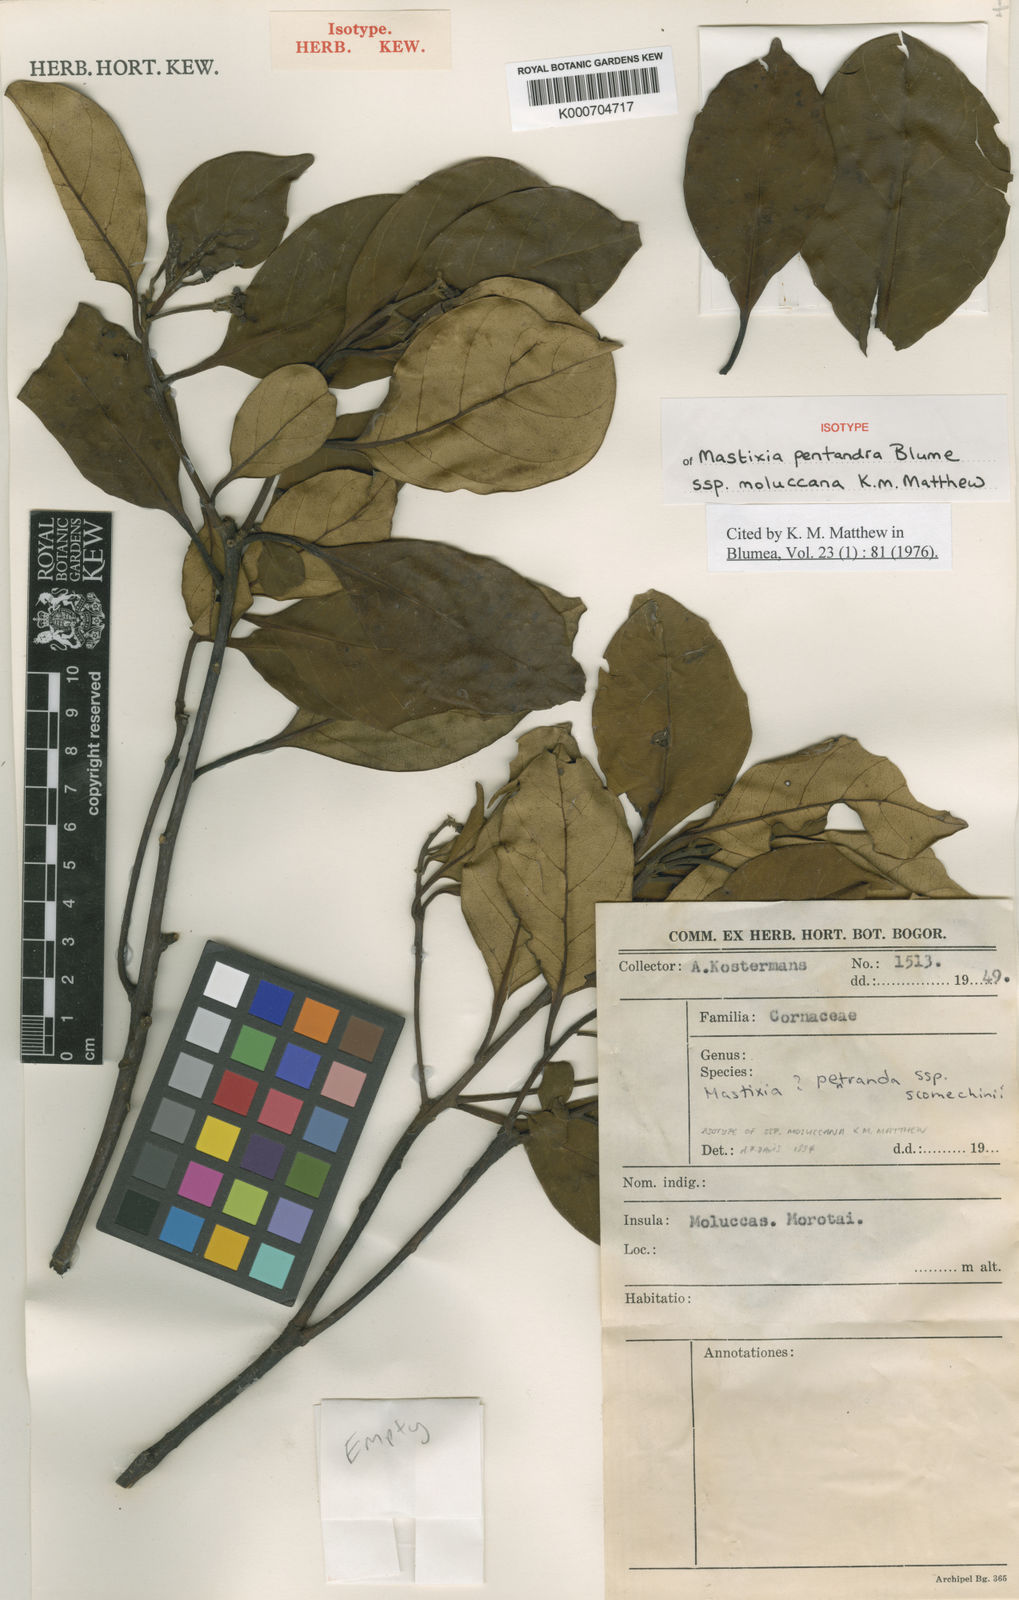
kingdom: Plantae
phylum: Tracheophyta
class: Magnoliopsida
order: Cornales
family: Nyssaceae
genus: Mastixia
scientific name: Mastixia pentandra
